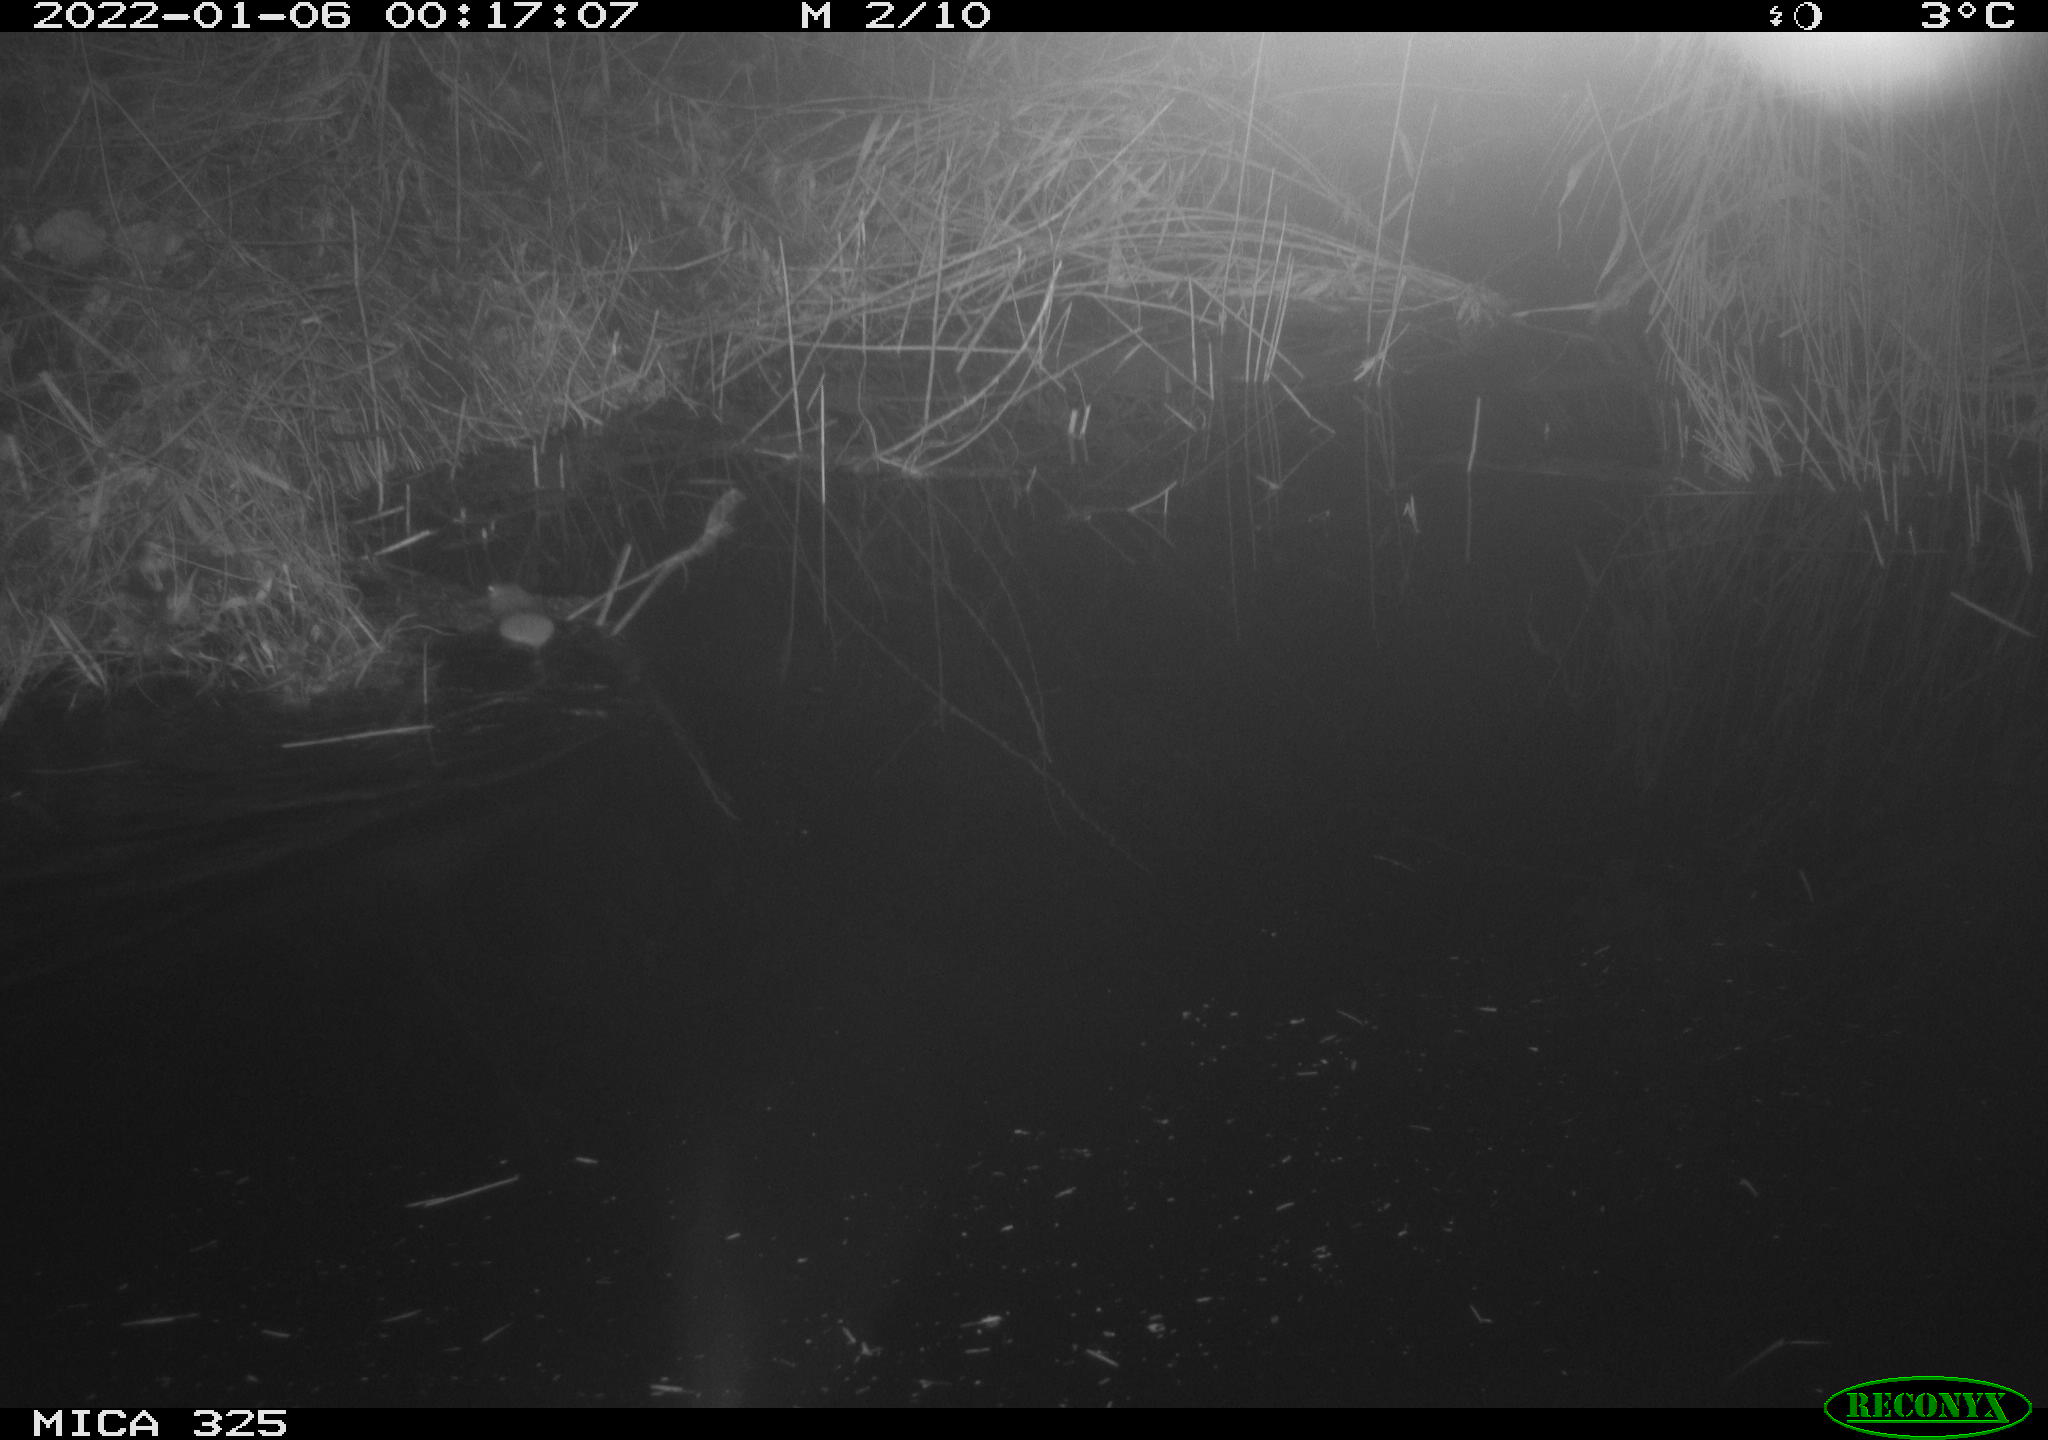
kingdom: Animalia
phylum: Chordata
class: Mammalia
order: Rodentia
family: Muridae
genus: Rattus
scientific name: Rattus norvegicus
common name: Brown rat
